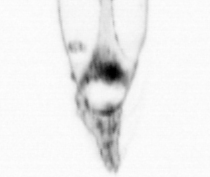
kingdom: Animalia
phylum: Arthropoda
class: Copepoda
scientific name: Copepoda
